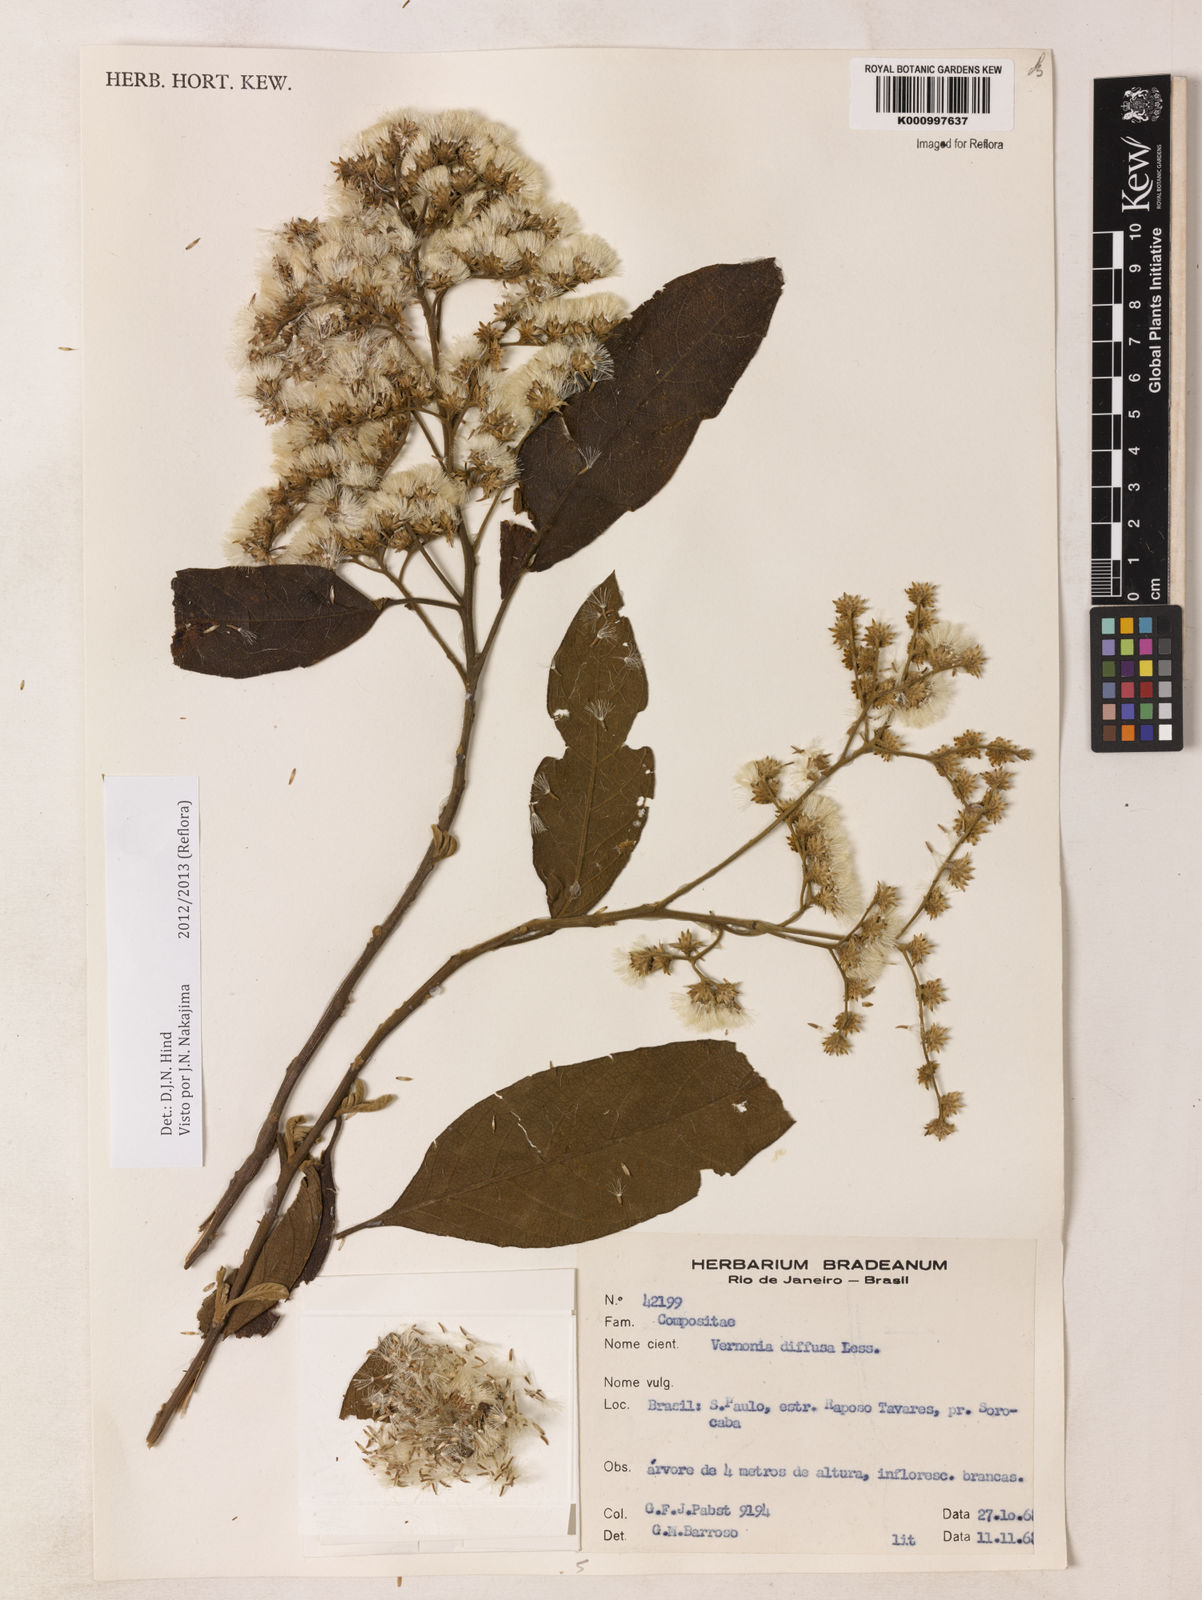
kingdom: Plantae
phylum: Tracheophyta
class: Magnoliopsida
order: Asterales
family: Asteraceae
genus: Vernonanthura
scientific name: Vernonanthura divaricata
